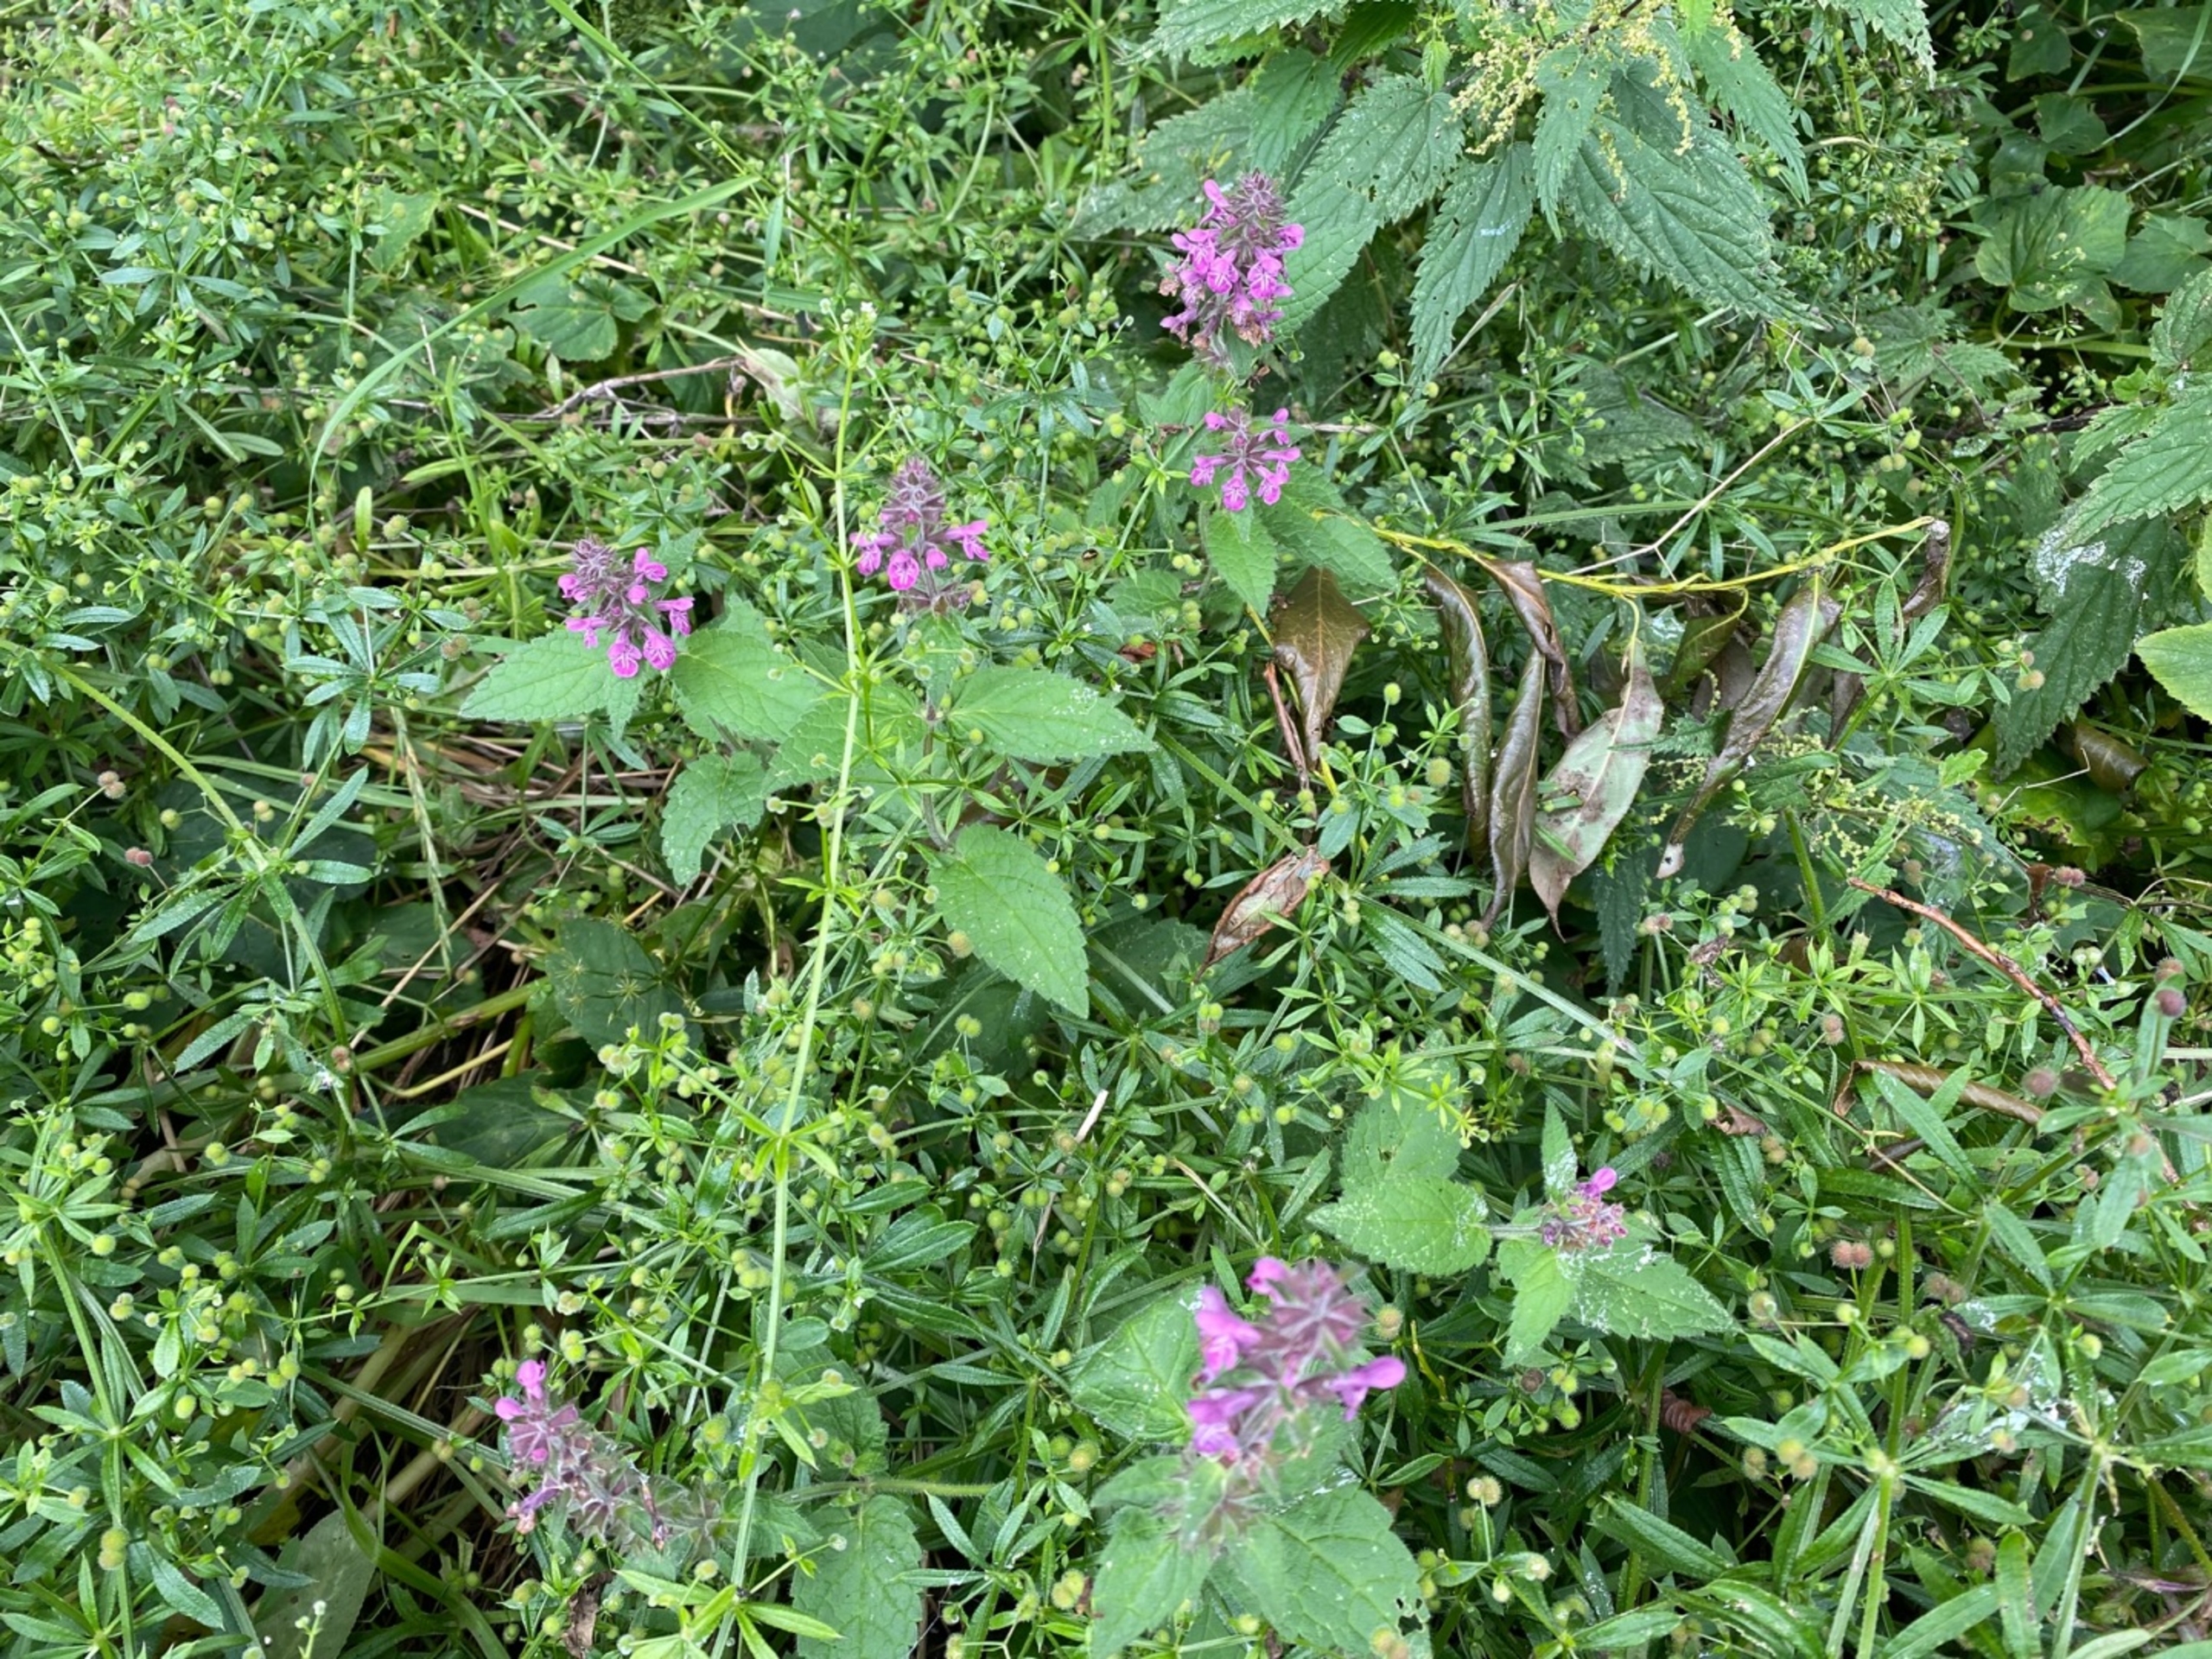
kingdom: Plantae
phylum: Tracheophyta
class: Magnoliopsida
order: Lamiales
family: Lamiaceae
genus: Stachys
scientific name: Stachys
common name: Hybrid-galtetand
